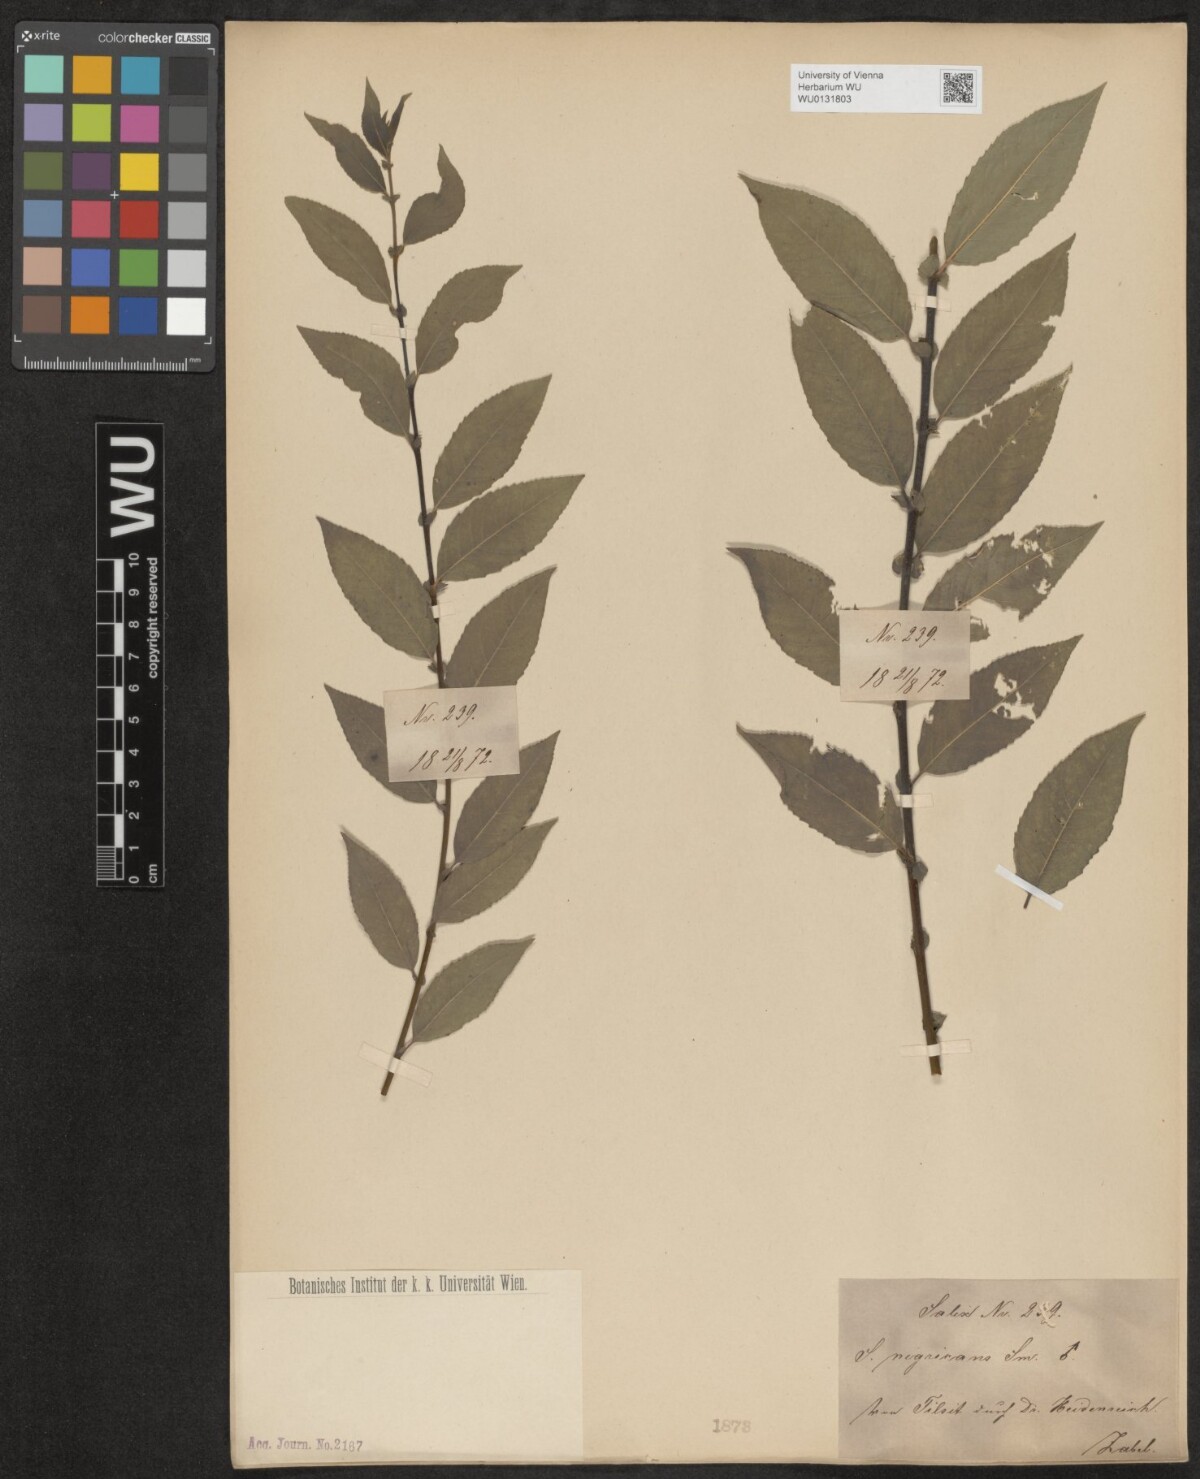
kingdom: Plantae
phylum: Tracheophyta
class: Magnoliopsida
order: Malpighiales
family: Salicaceae
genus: Salix
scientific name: Salix myrsinifolia
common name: Dark-leaved willow
